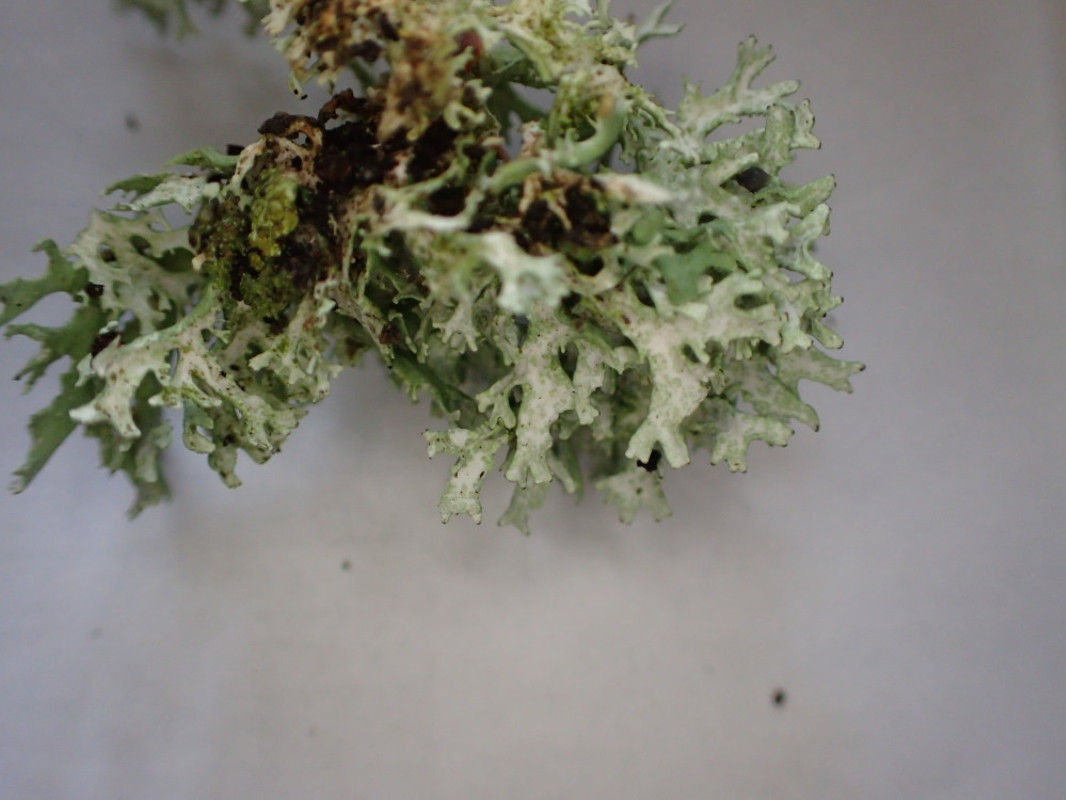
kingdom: Fungi
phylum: Ascomycota
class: Lecanoromycetes
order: Lecanorales
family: Parmeliaceae
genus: Evernia
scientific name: Evernia prunastri
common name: almindelig slåenlav
